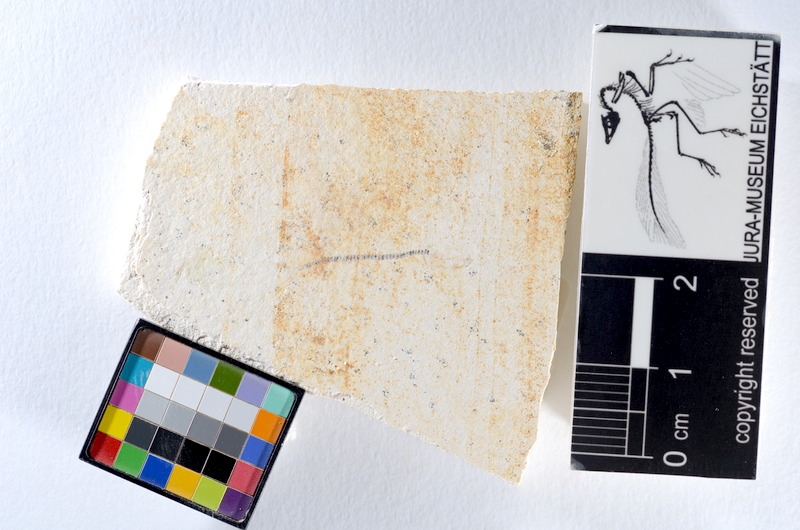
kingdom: Animalia
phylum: Chordata
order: Salmoniformes
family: Orthogonikleithridae
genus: Orthogonikleithrus
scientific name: Orthogonikleithrus hoelli
